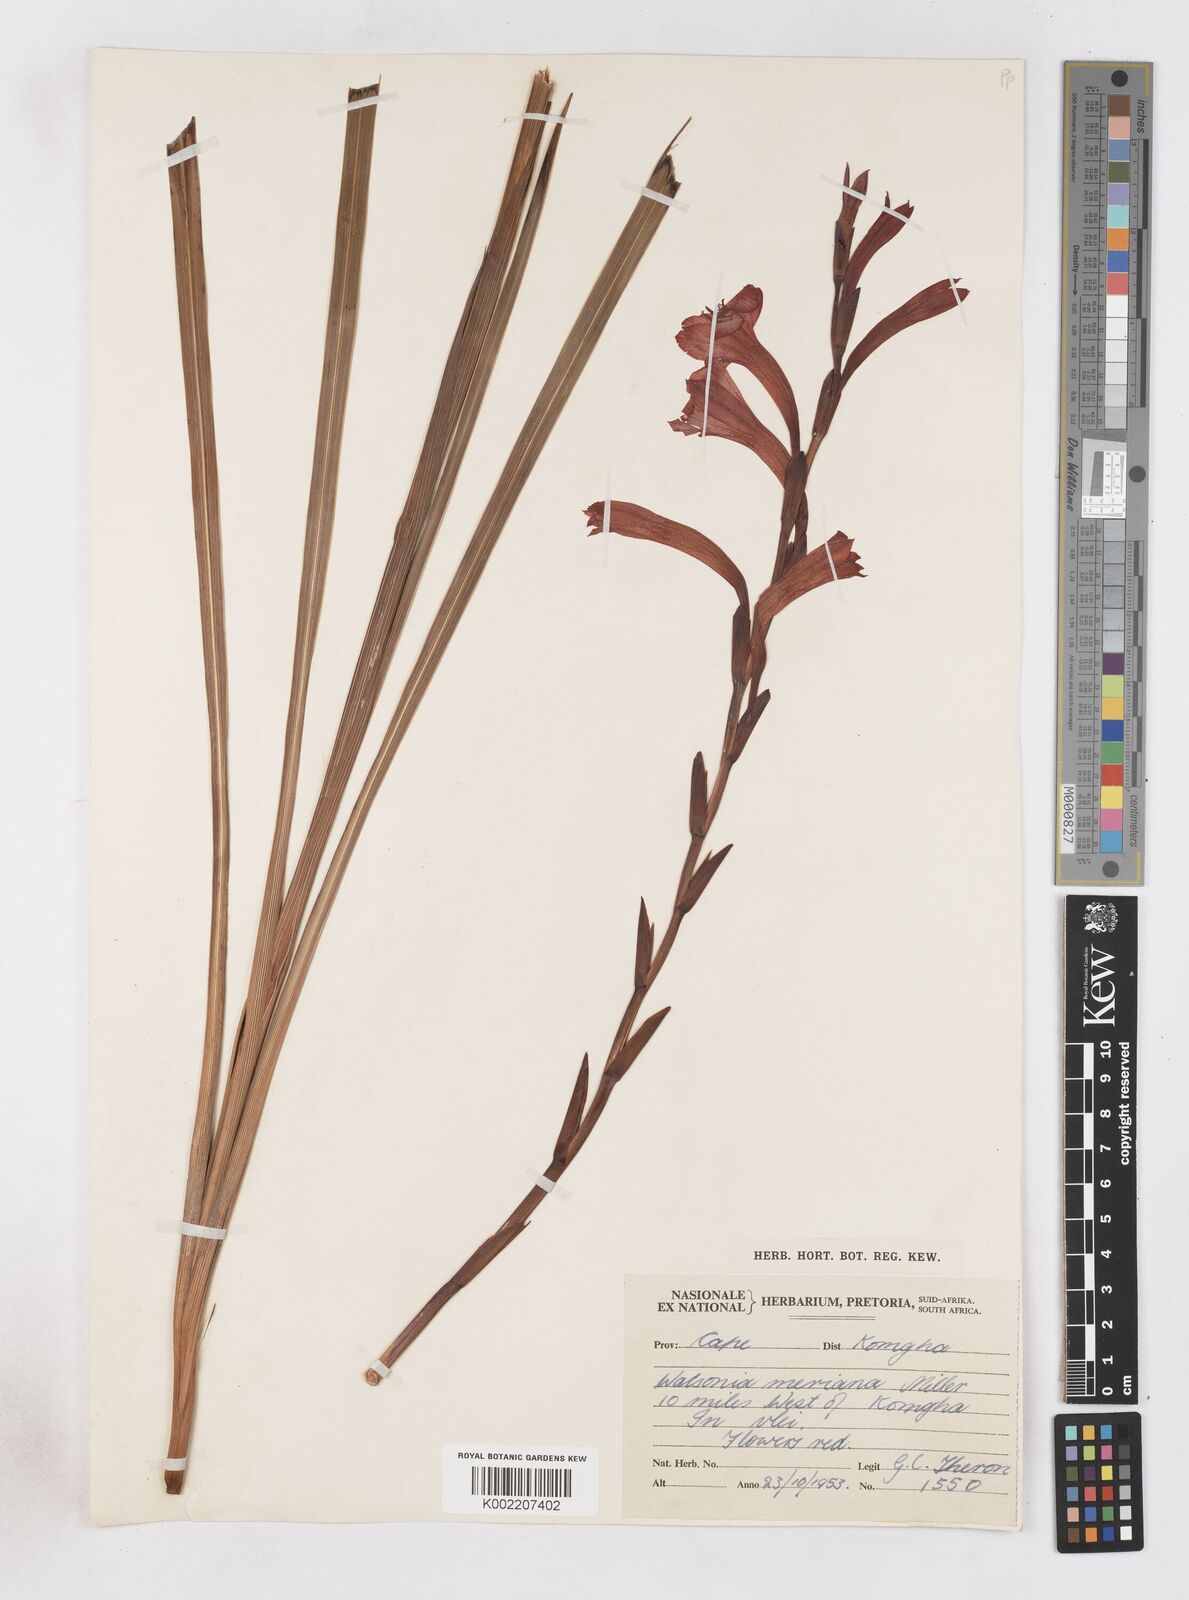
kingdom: Plantae
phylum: Tracheophyta
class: Liliopsida
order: Asparagales
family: Iridaceae
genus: Watsonia
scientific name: Watsonia pillansii
